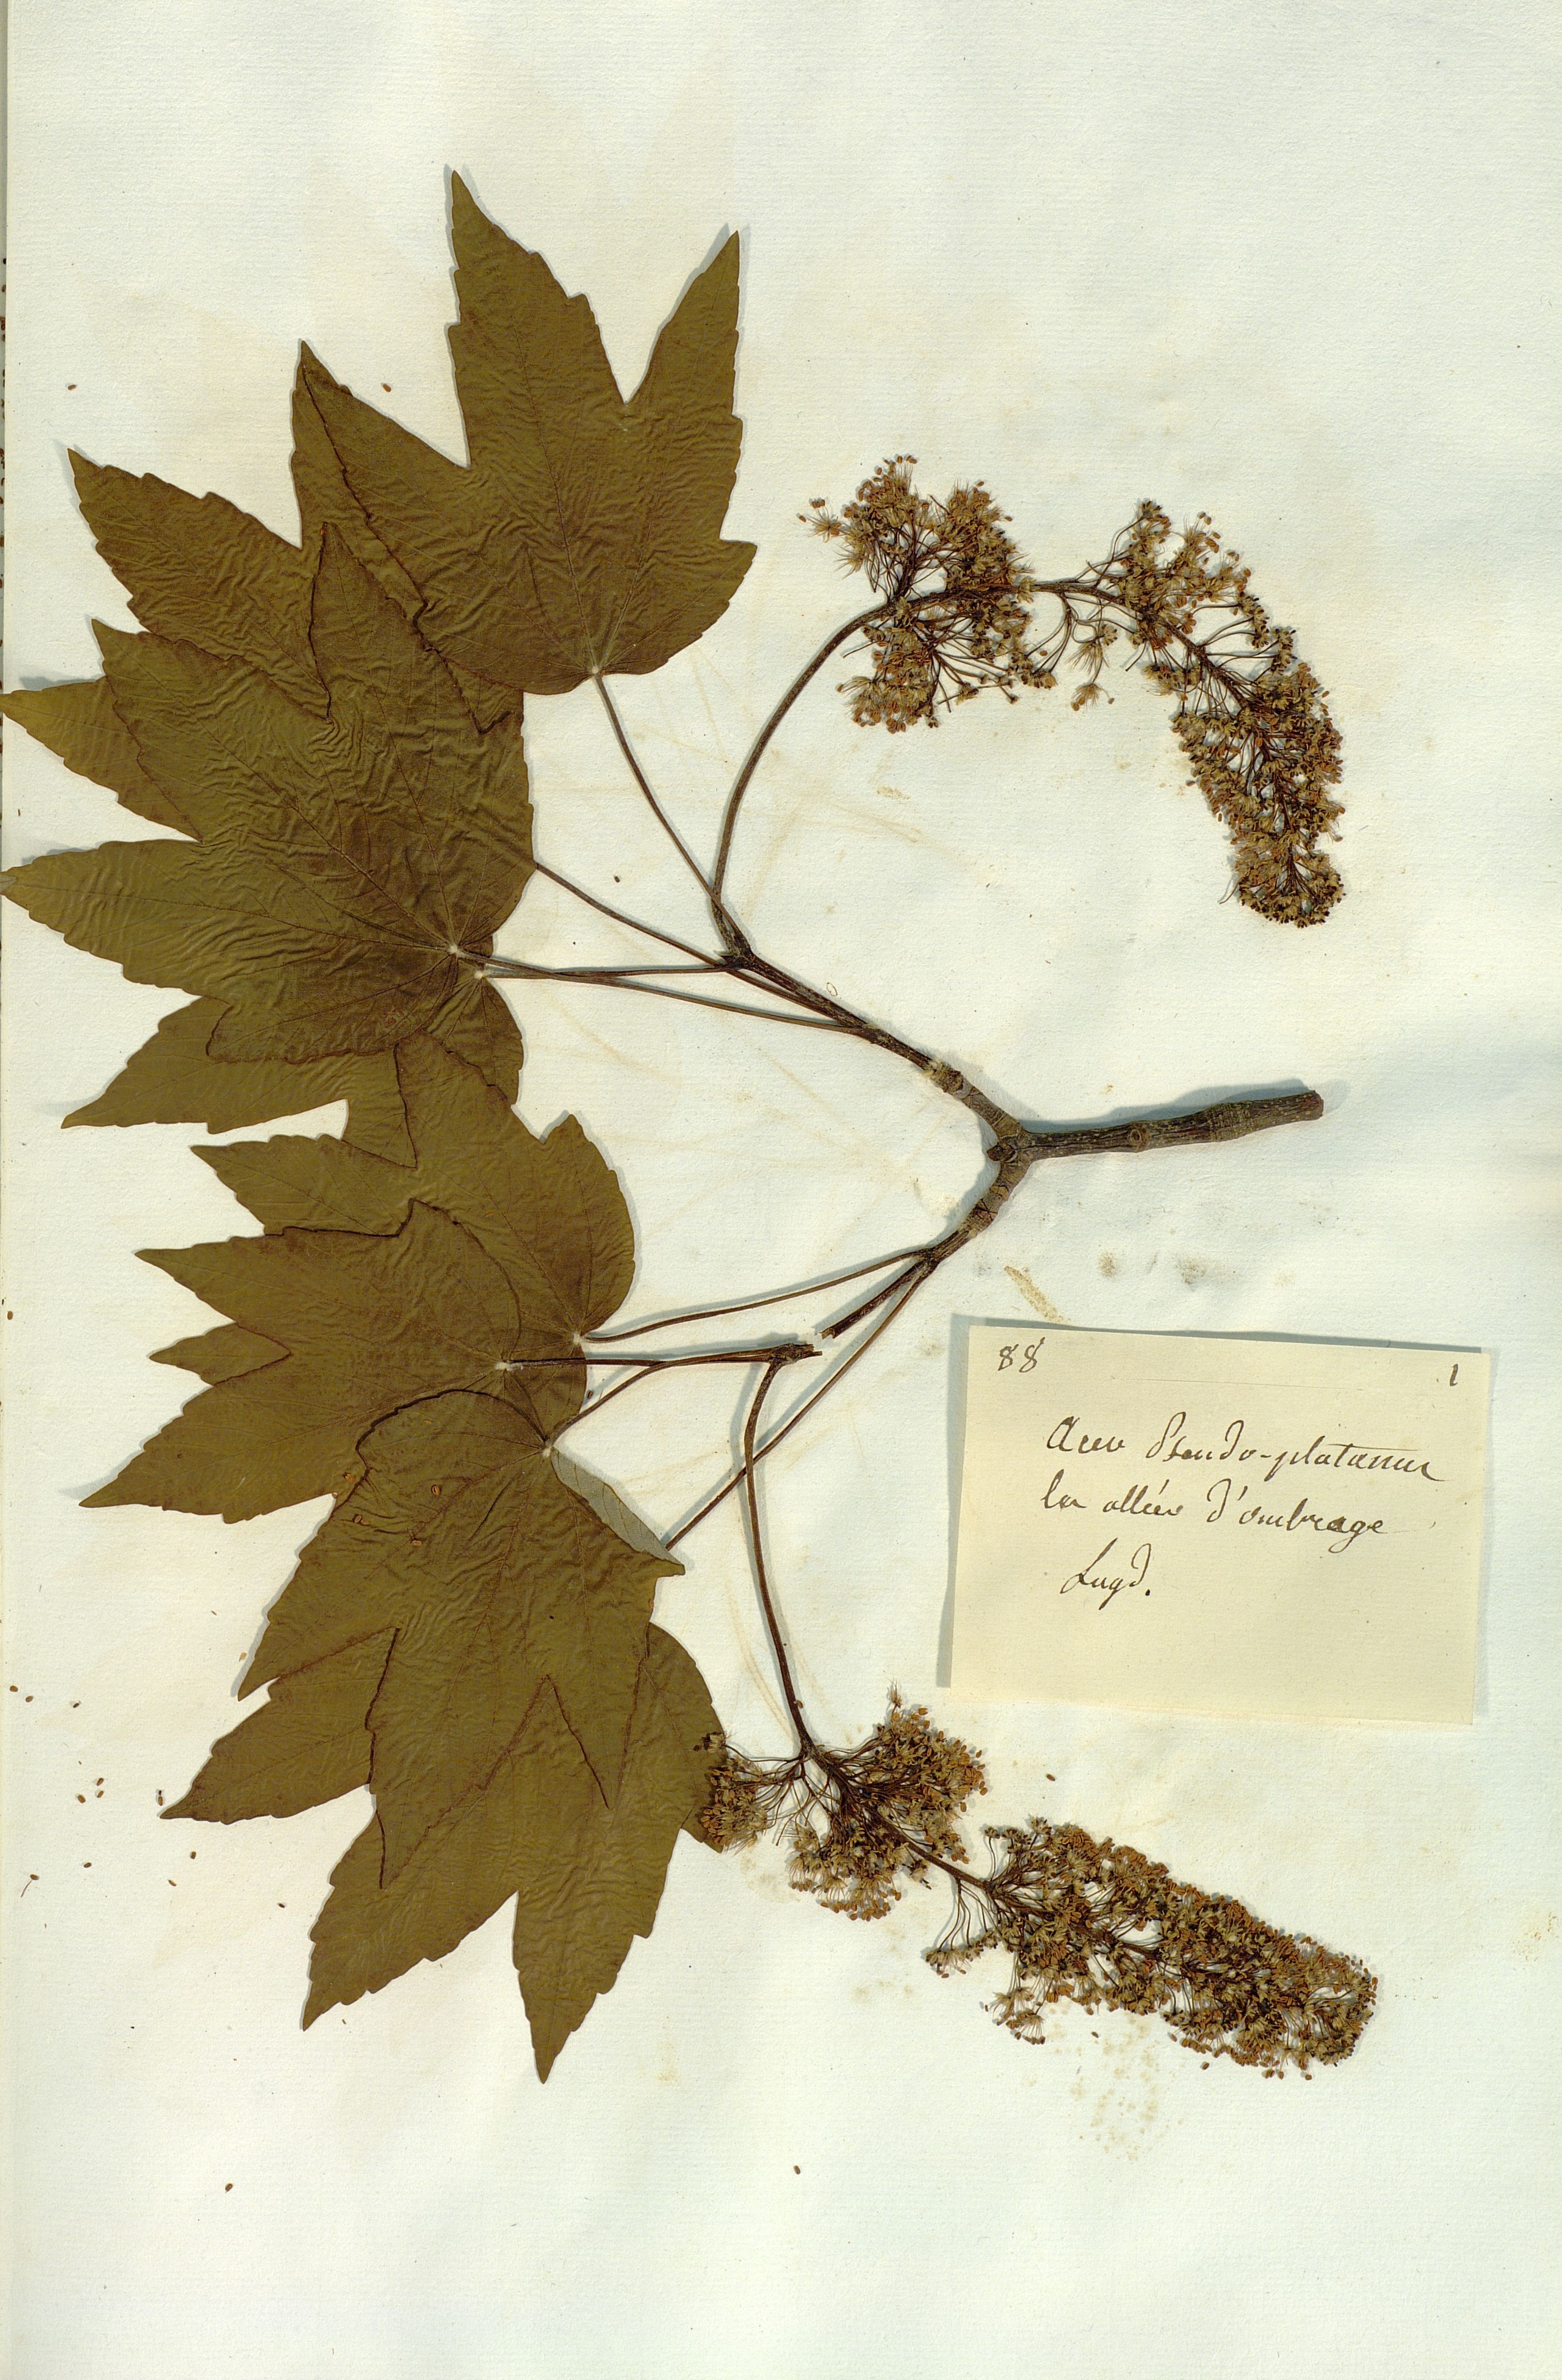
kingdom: Plantae
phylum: Tracheophyta
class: Magnoliopsida
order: Sapindales
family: Sapindaceae
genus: Acer
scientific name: Acer pseudoplatanus
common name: Sycamore
